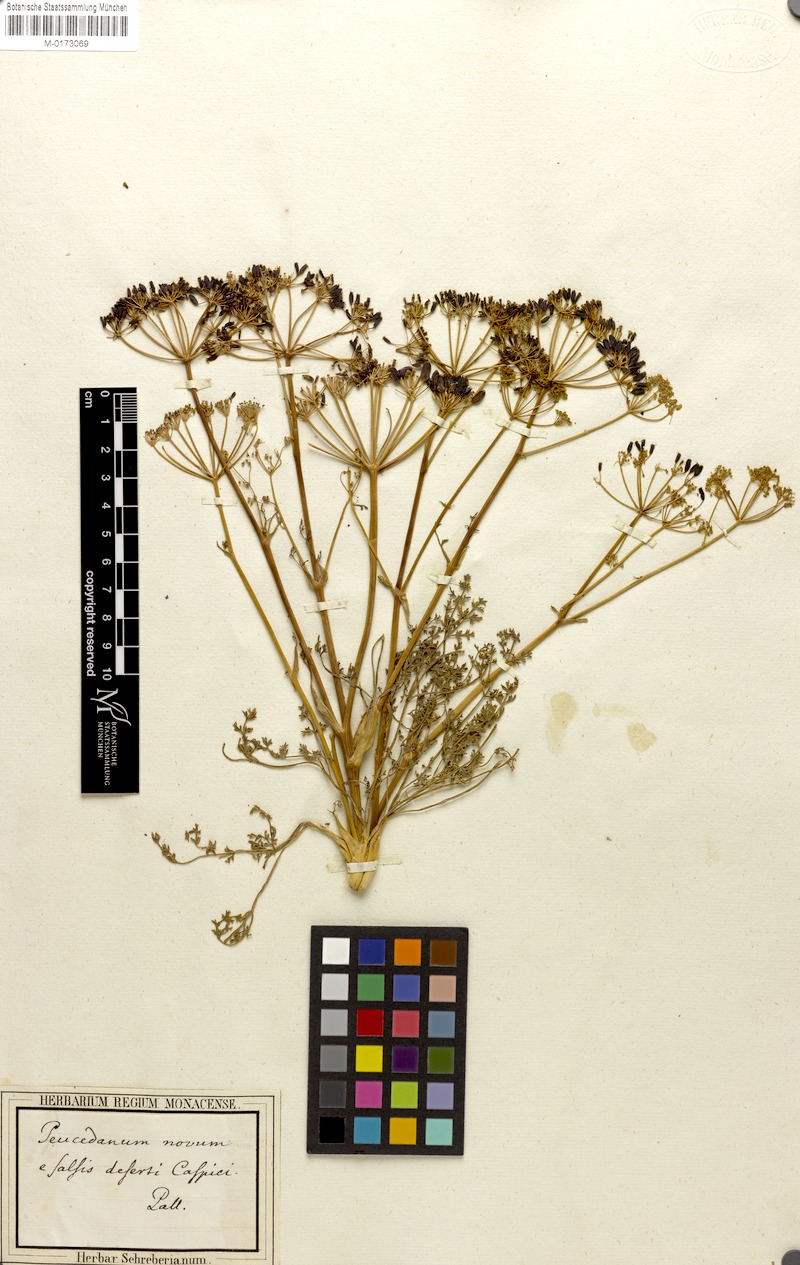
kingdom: Plantae
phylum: Tracheophyta
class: Magnoliopsida
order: Apiales
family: Apiaceae
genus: Ferula
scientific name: Ferula caspica
